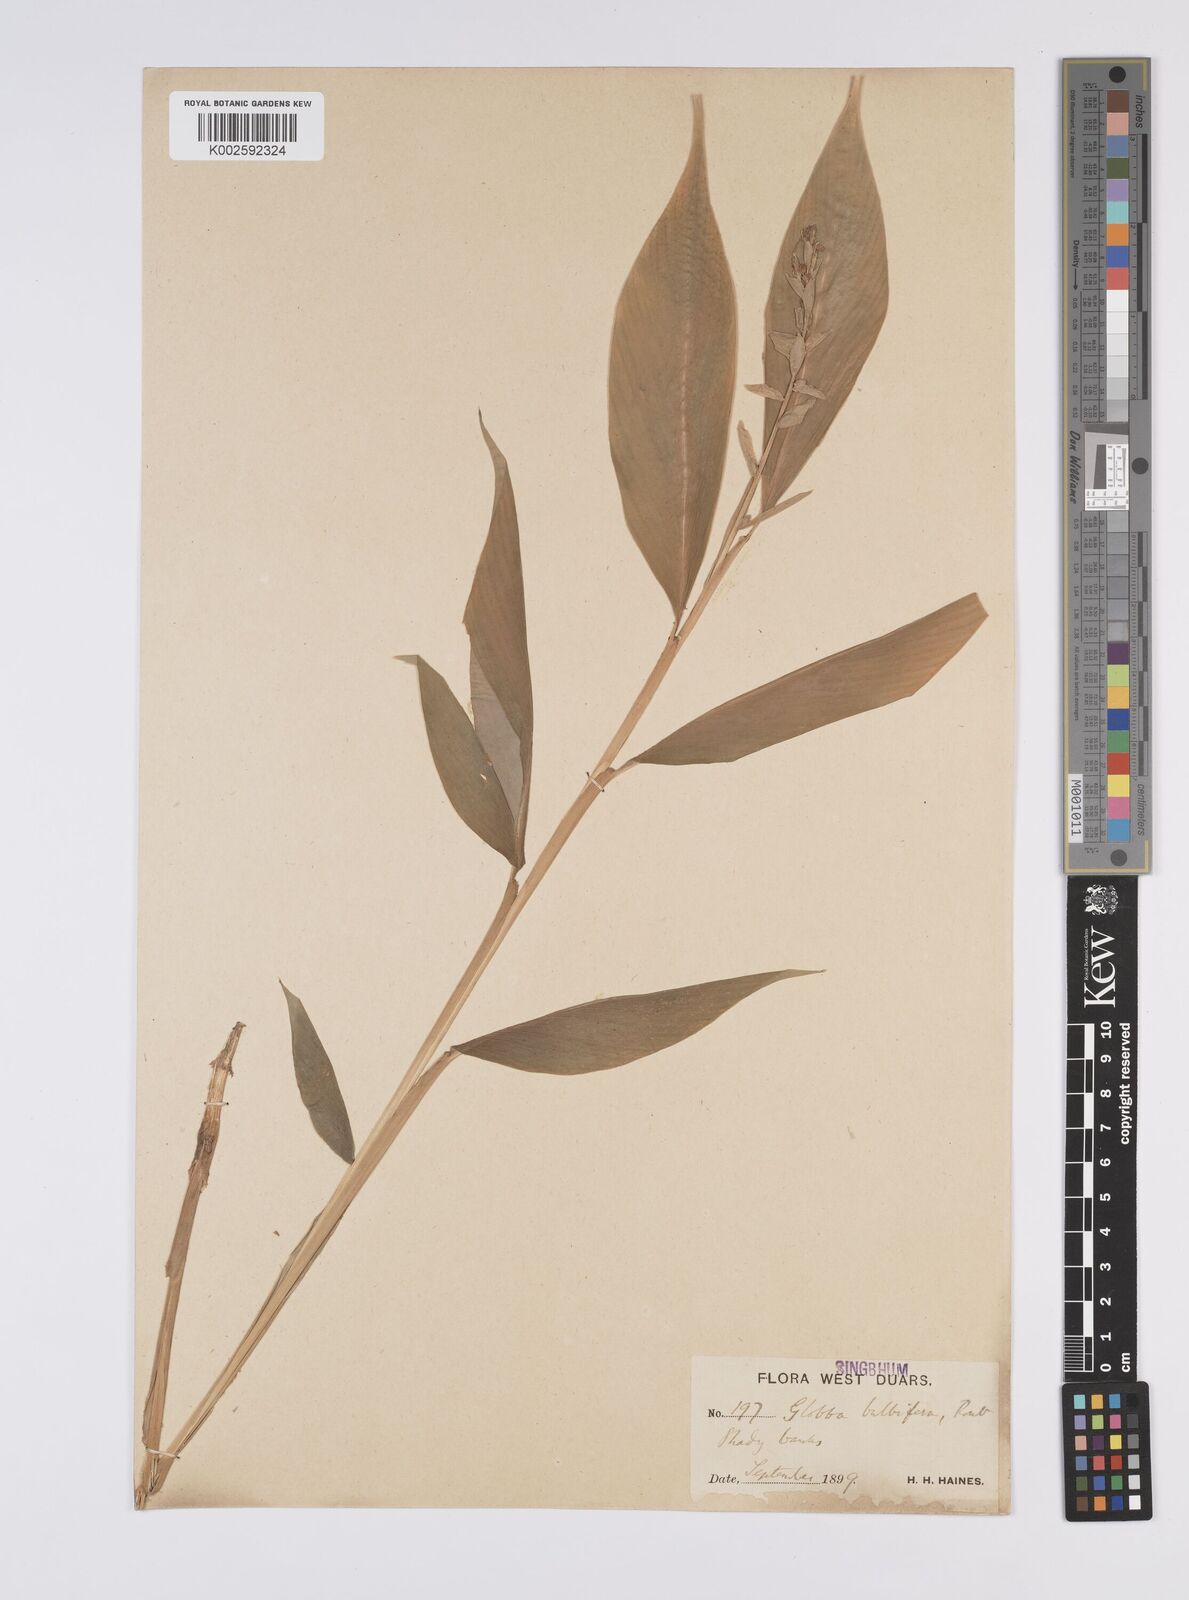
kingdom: Plantae
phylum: Tracheophyta
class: Liliopsida
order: Zingiberales
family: Zingiberaceae
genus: Globba
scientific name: Globba marantina
